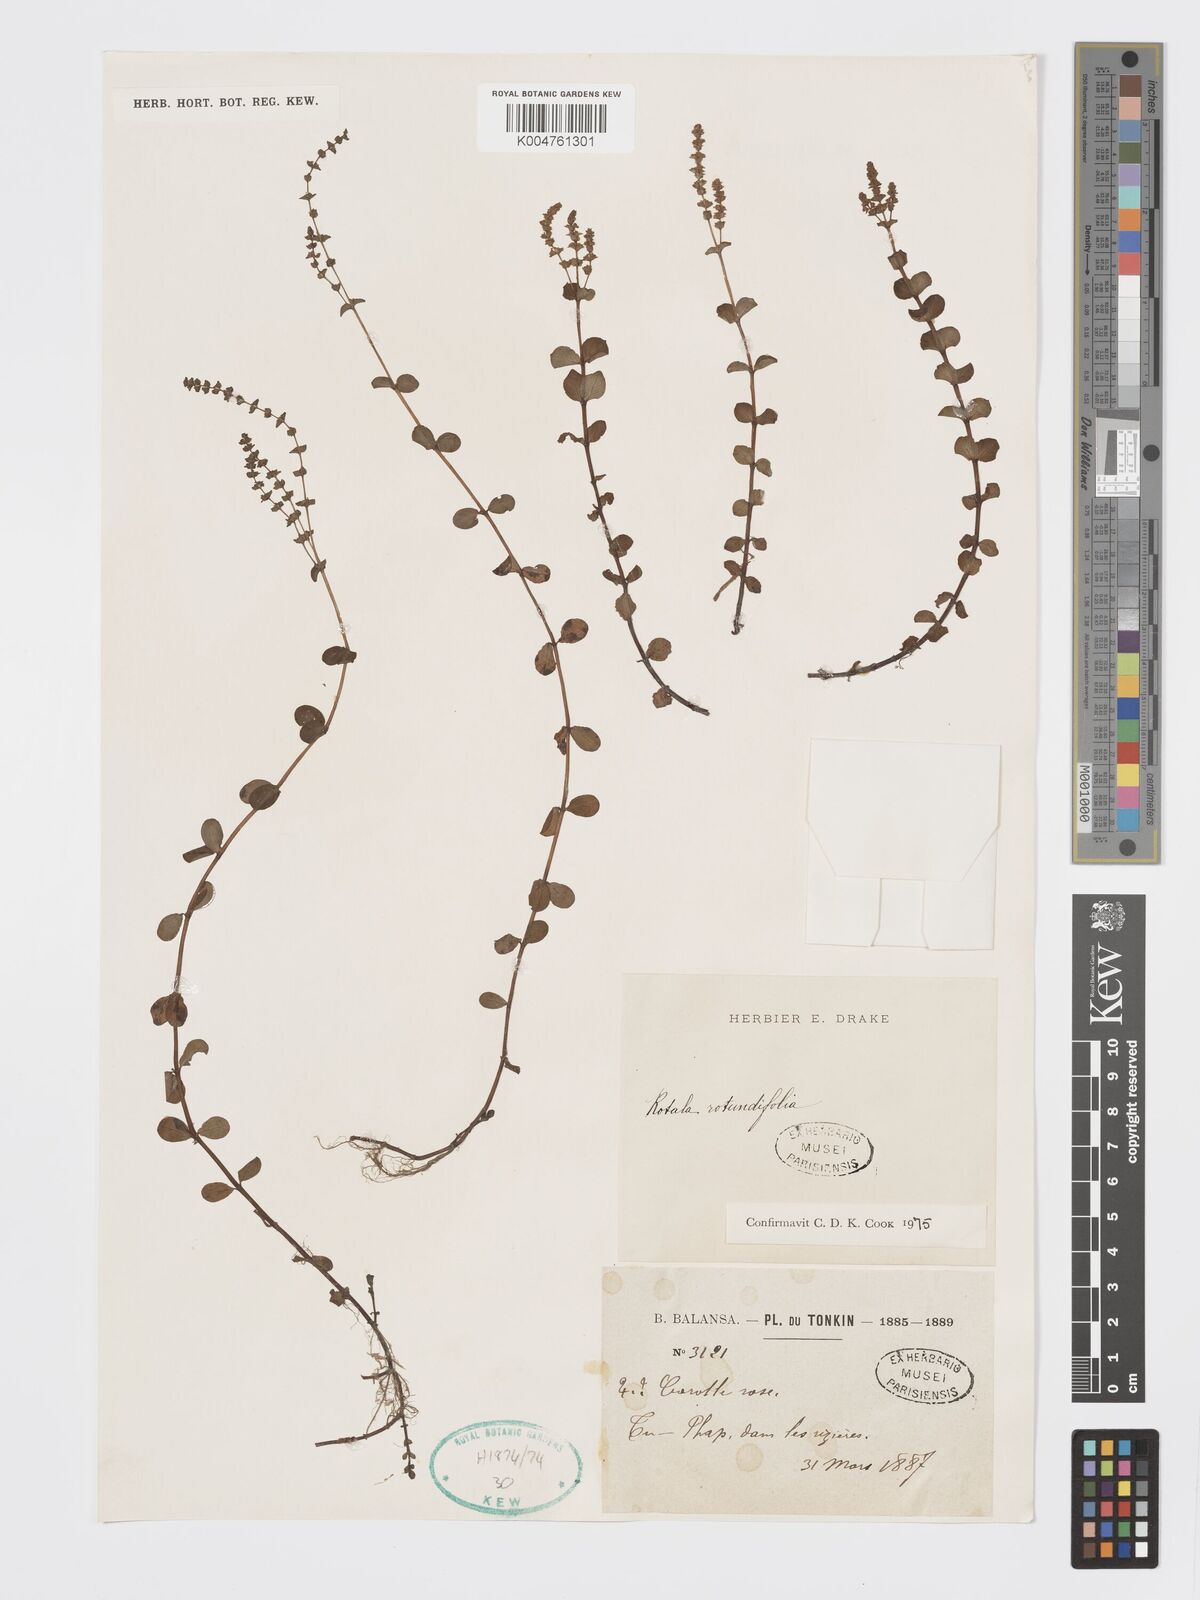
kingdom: Plantae
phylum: Tracheophyta
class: Magnoliopsida
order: Myrtales
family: Lythraceae
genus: Rotala
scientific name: Rotala rotundifolia
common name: Roundleaf toothcup
